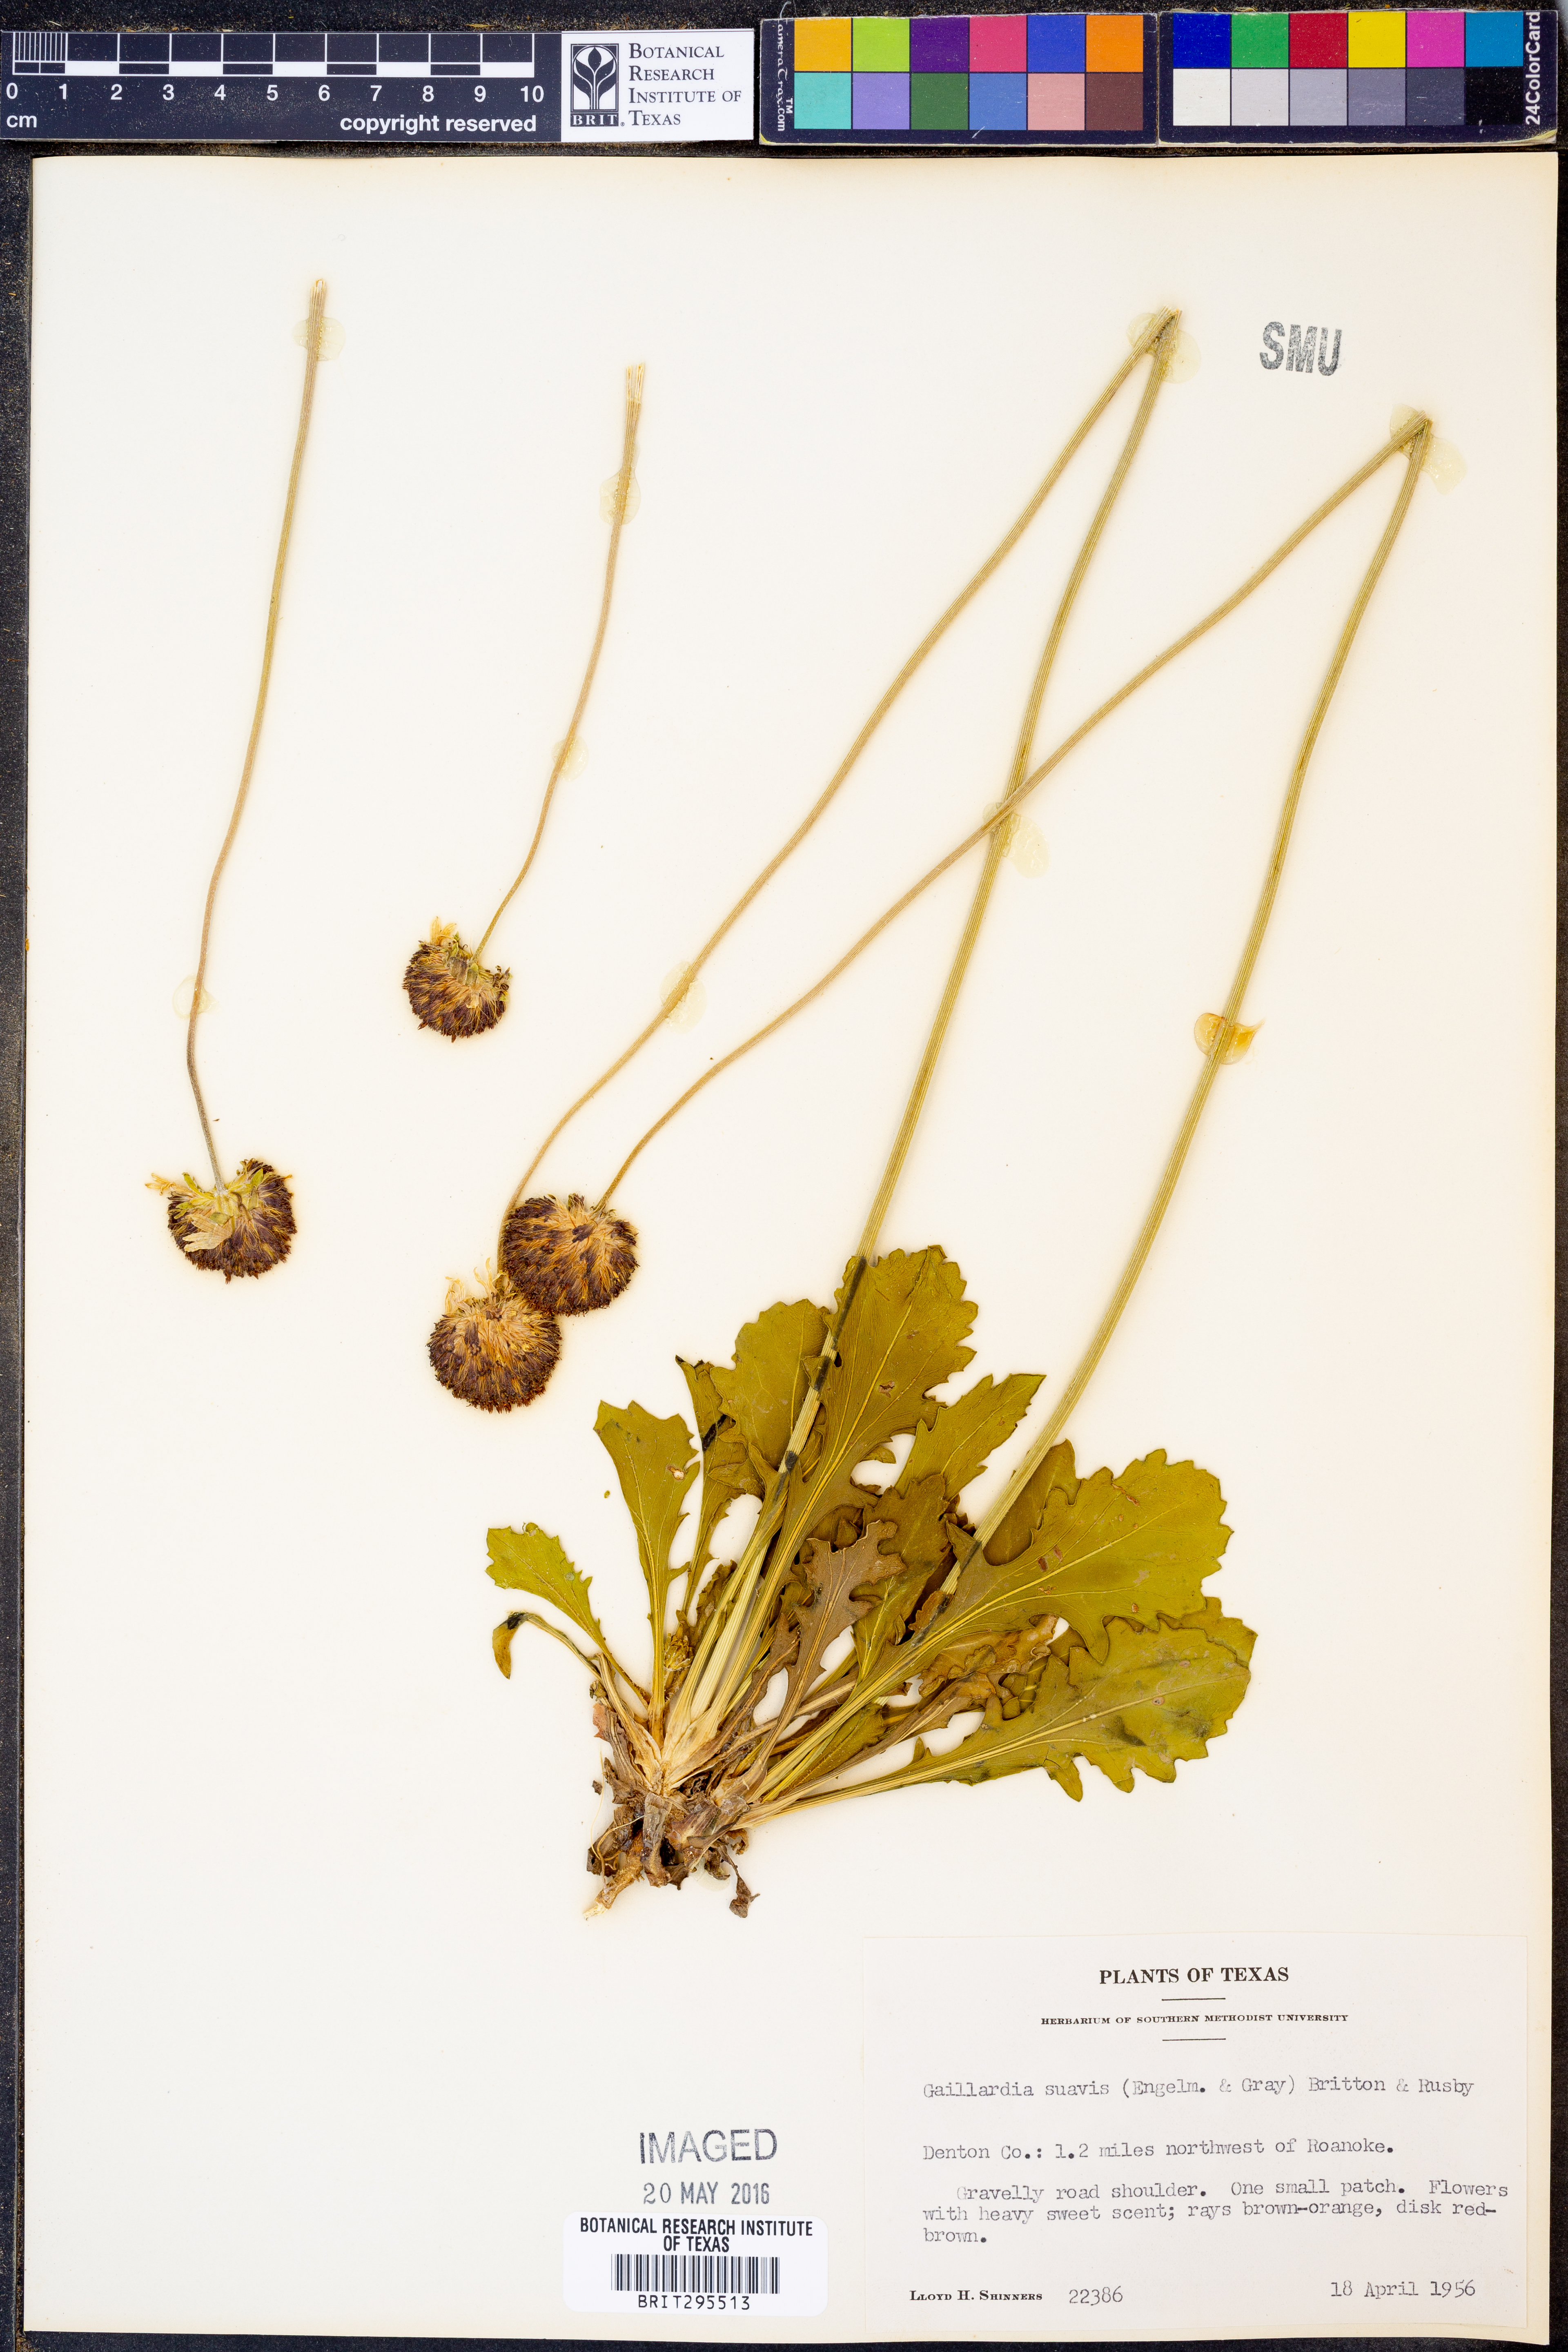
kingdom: Plantae
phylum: Tracheophyta
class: Magnoliopsida
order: Asterales
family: Asteraceae
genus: Gaillardia
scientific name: Gaillardia suavis
